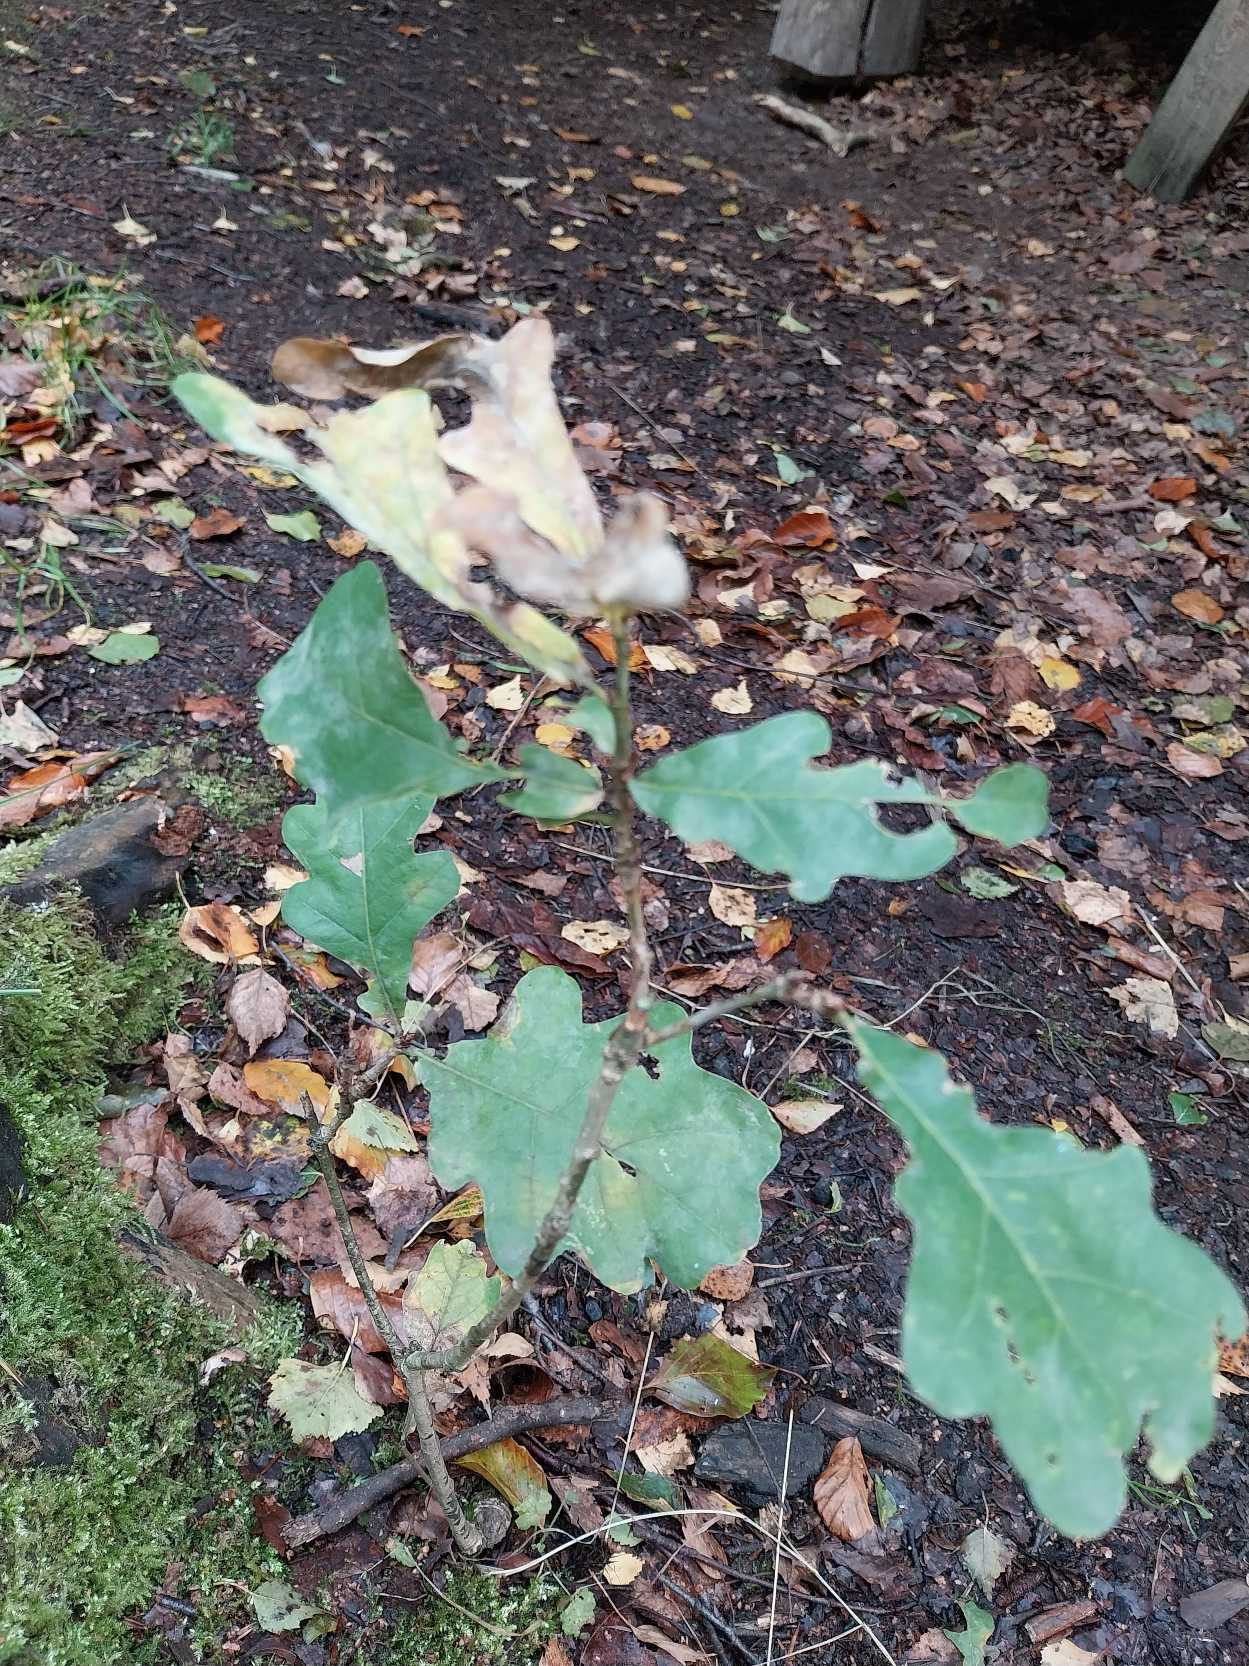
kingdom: Plantae
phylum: Tracheophyta
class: Magnoliopsida
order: Fagales
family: Fagaceae
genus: Quercus
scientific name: Quercus robur
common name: Stilk-eg/almindelig eg
